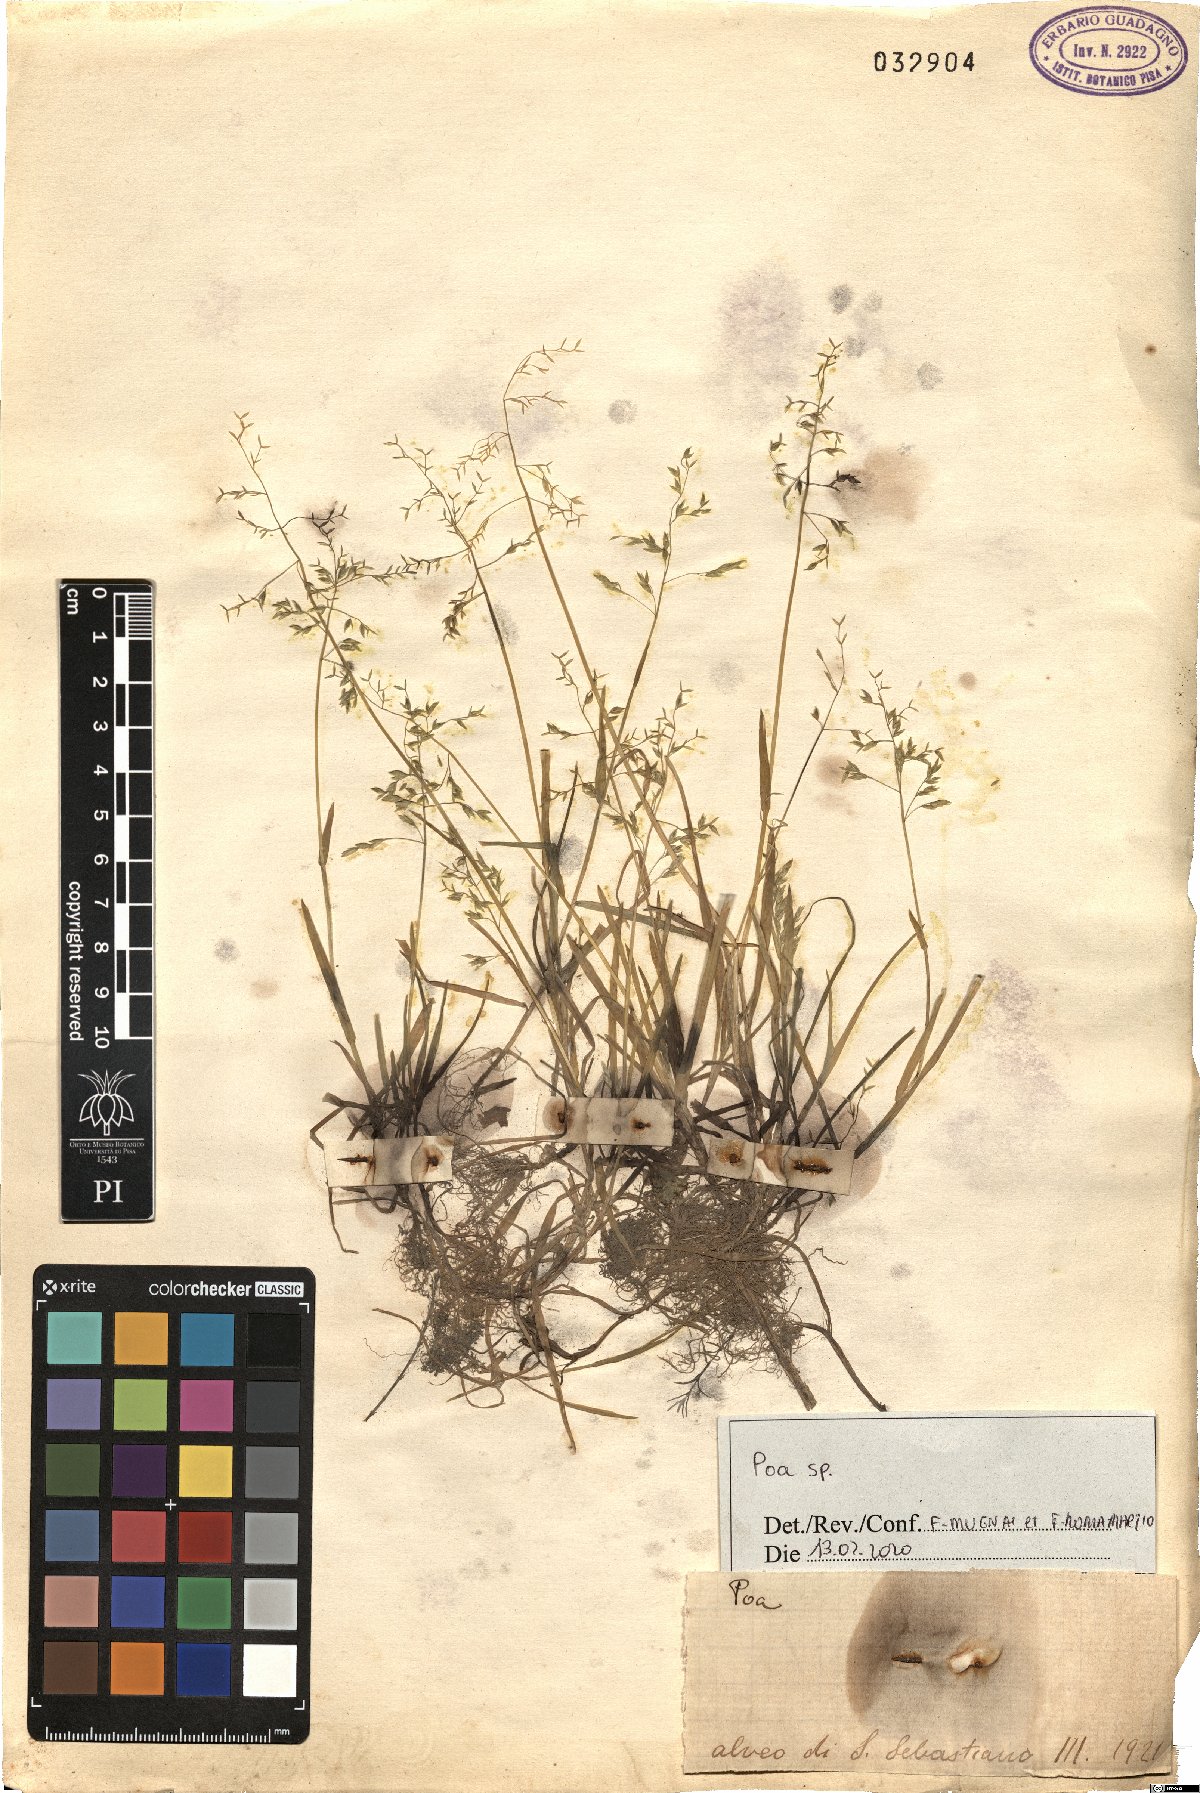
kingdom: Plantae
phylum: Tracheophyta
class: Liliopsida
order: Poales
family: Poaceae
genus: Poa
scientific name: Poa
